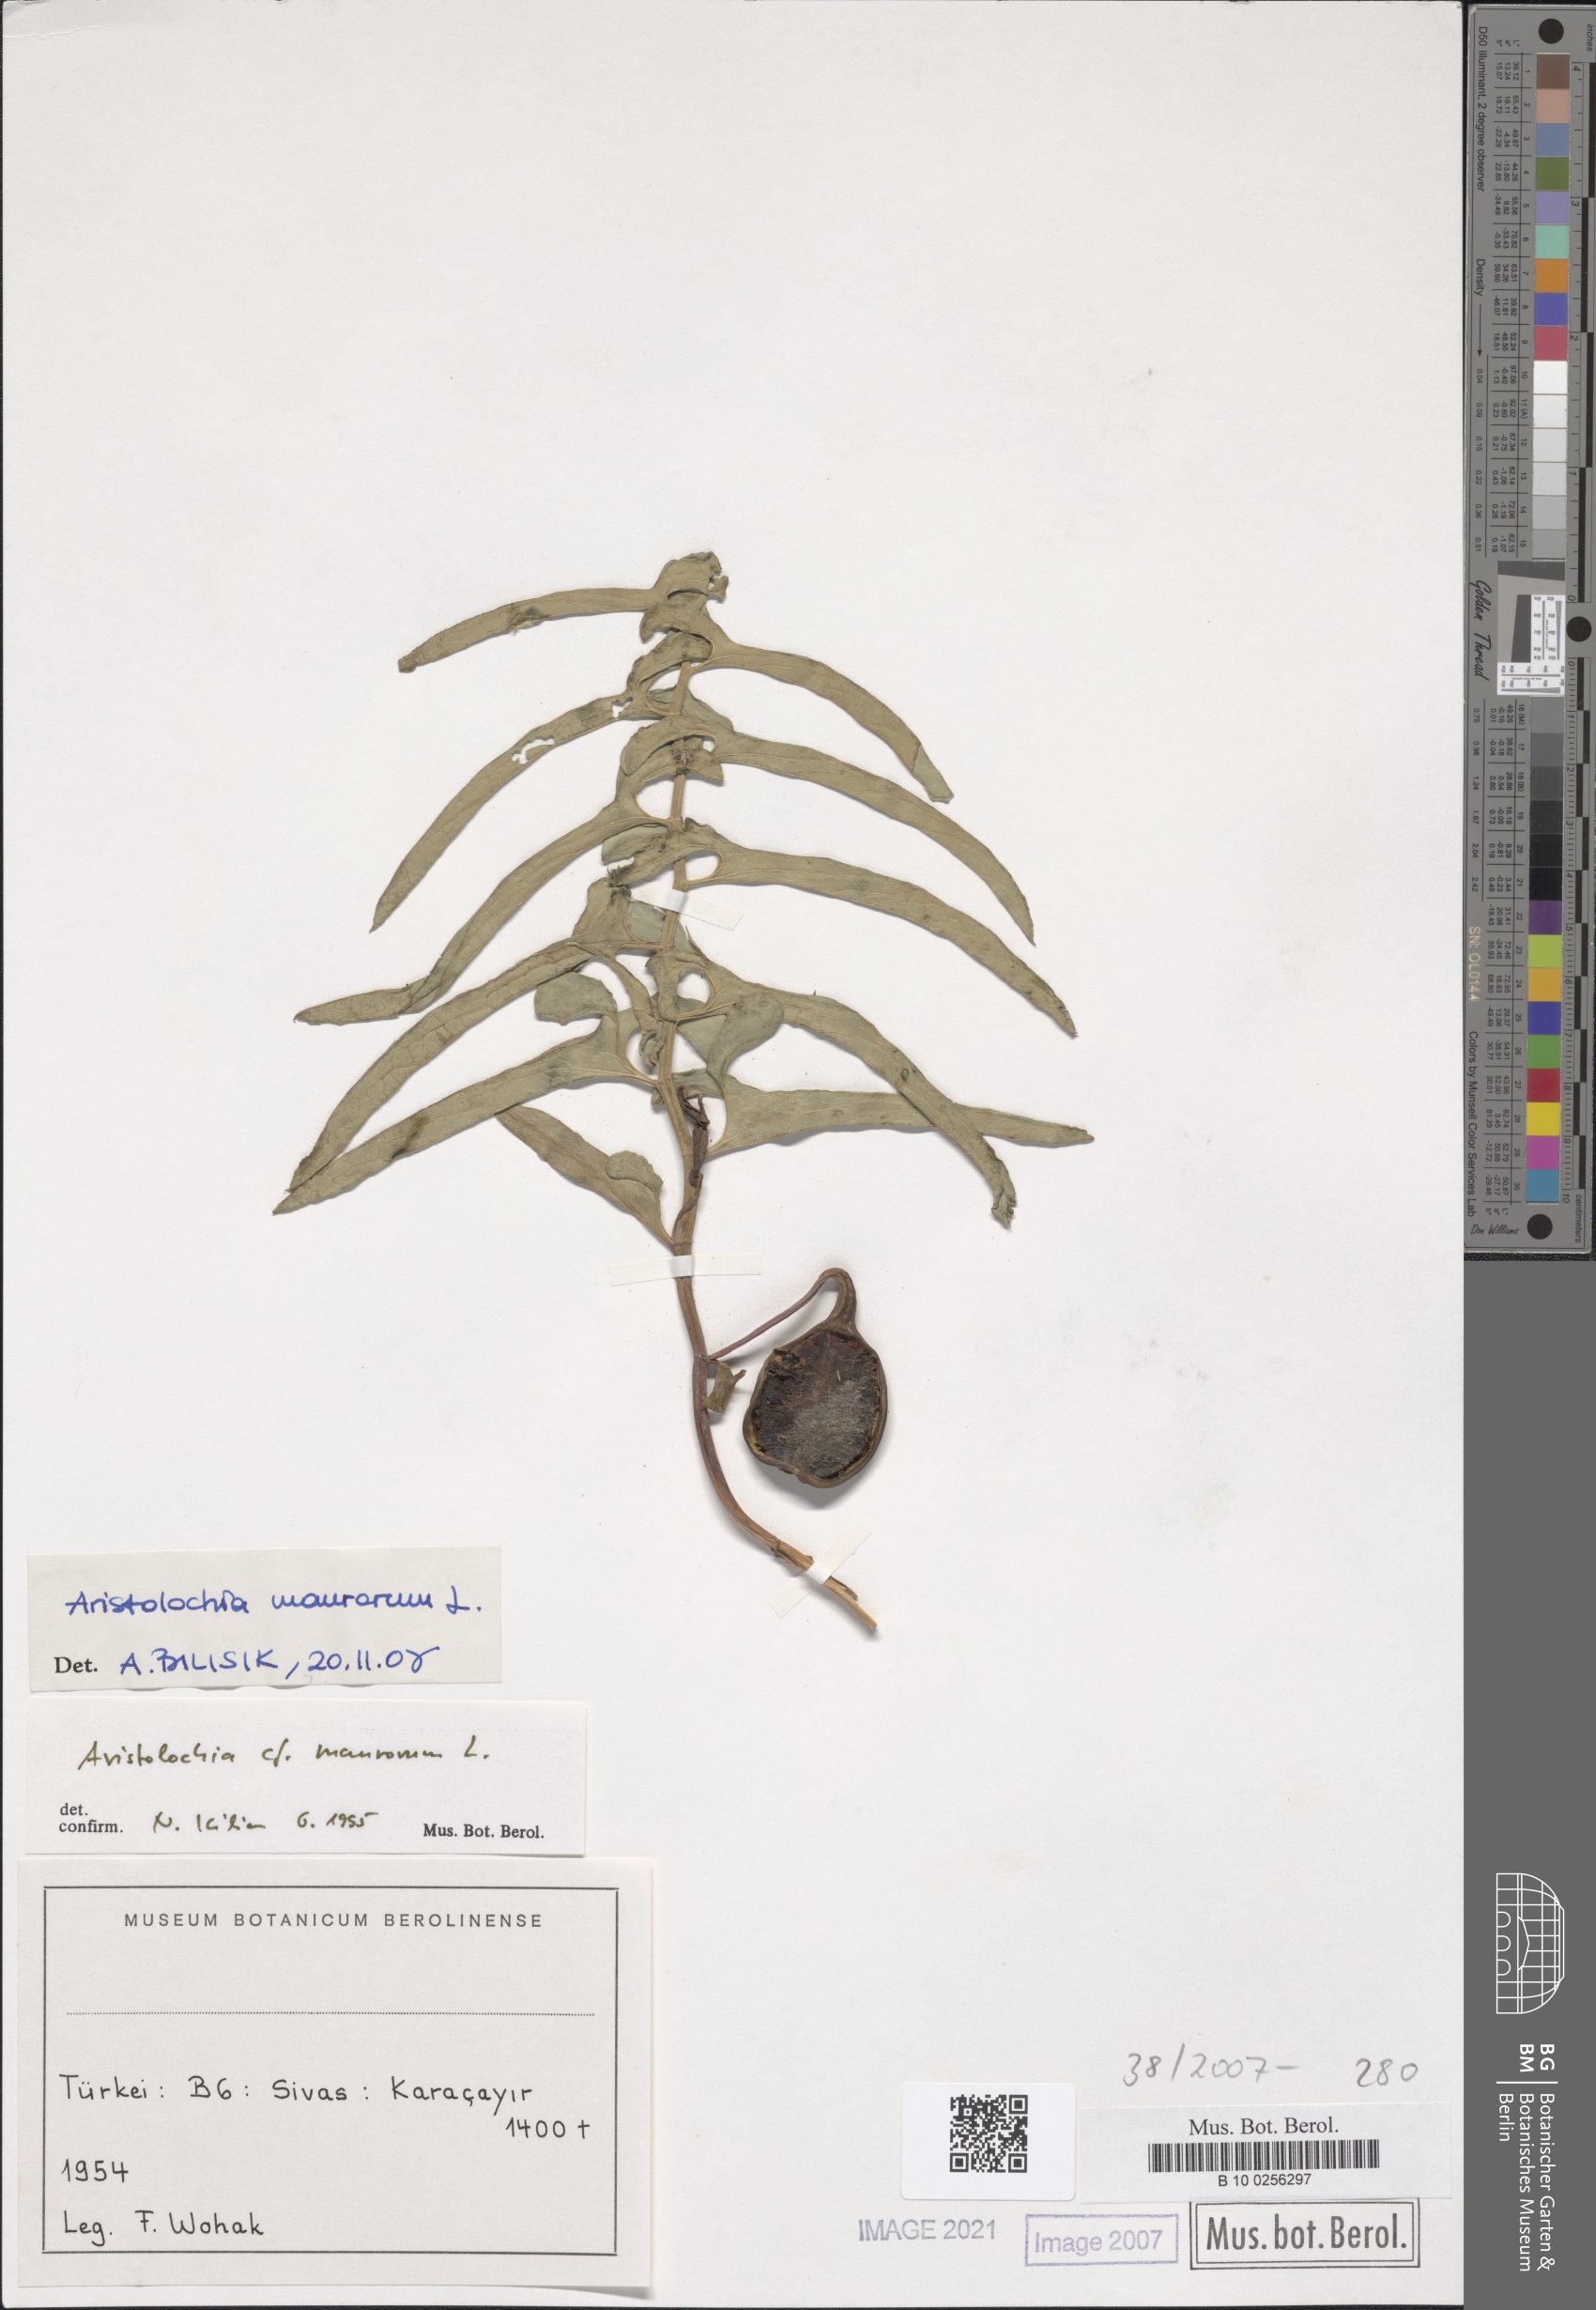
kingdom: Plantae
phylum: Tracheophyta
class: Magnoliopsida
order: Piperales
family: Aristolochiaceae
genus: Aristolochia
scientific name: Aristolochia maurorum
